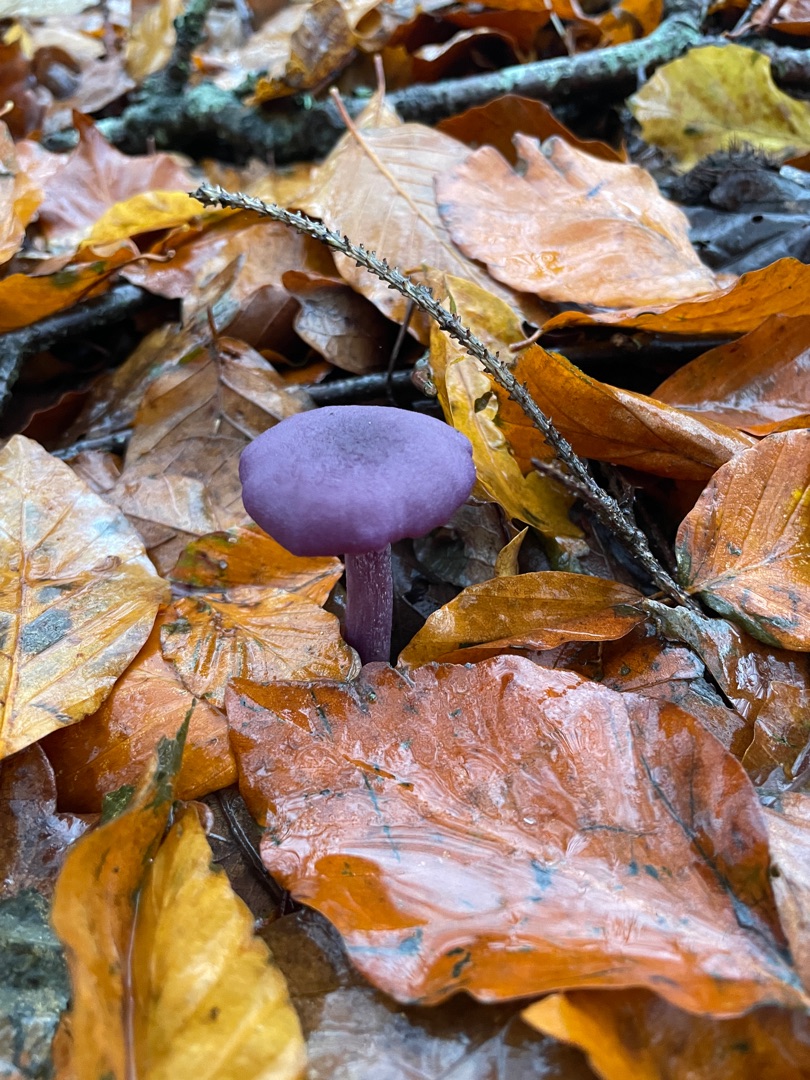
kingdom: Fungi
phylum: Basidiomycota
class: Agaricomycetes
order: Agaricales
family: Hydnangiaceae
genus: Laccaria
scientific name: Laccaria amethystina
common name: Violet ametysthat
